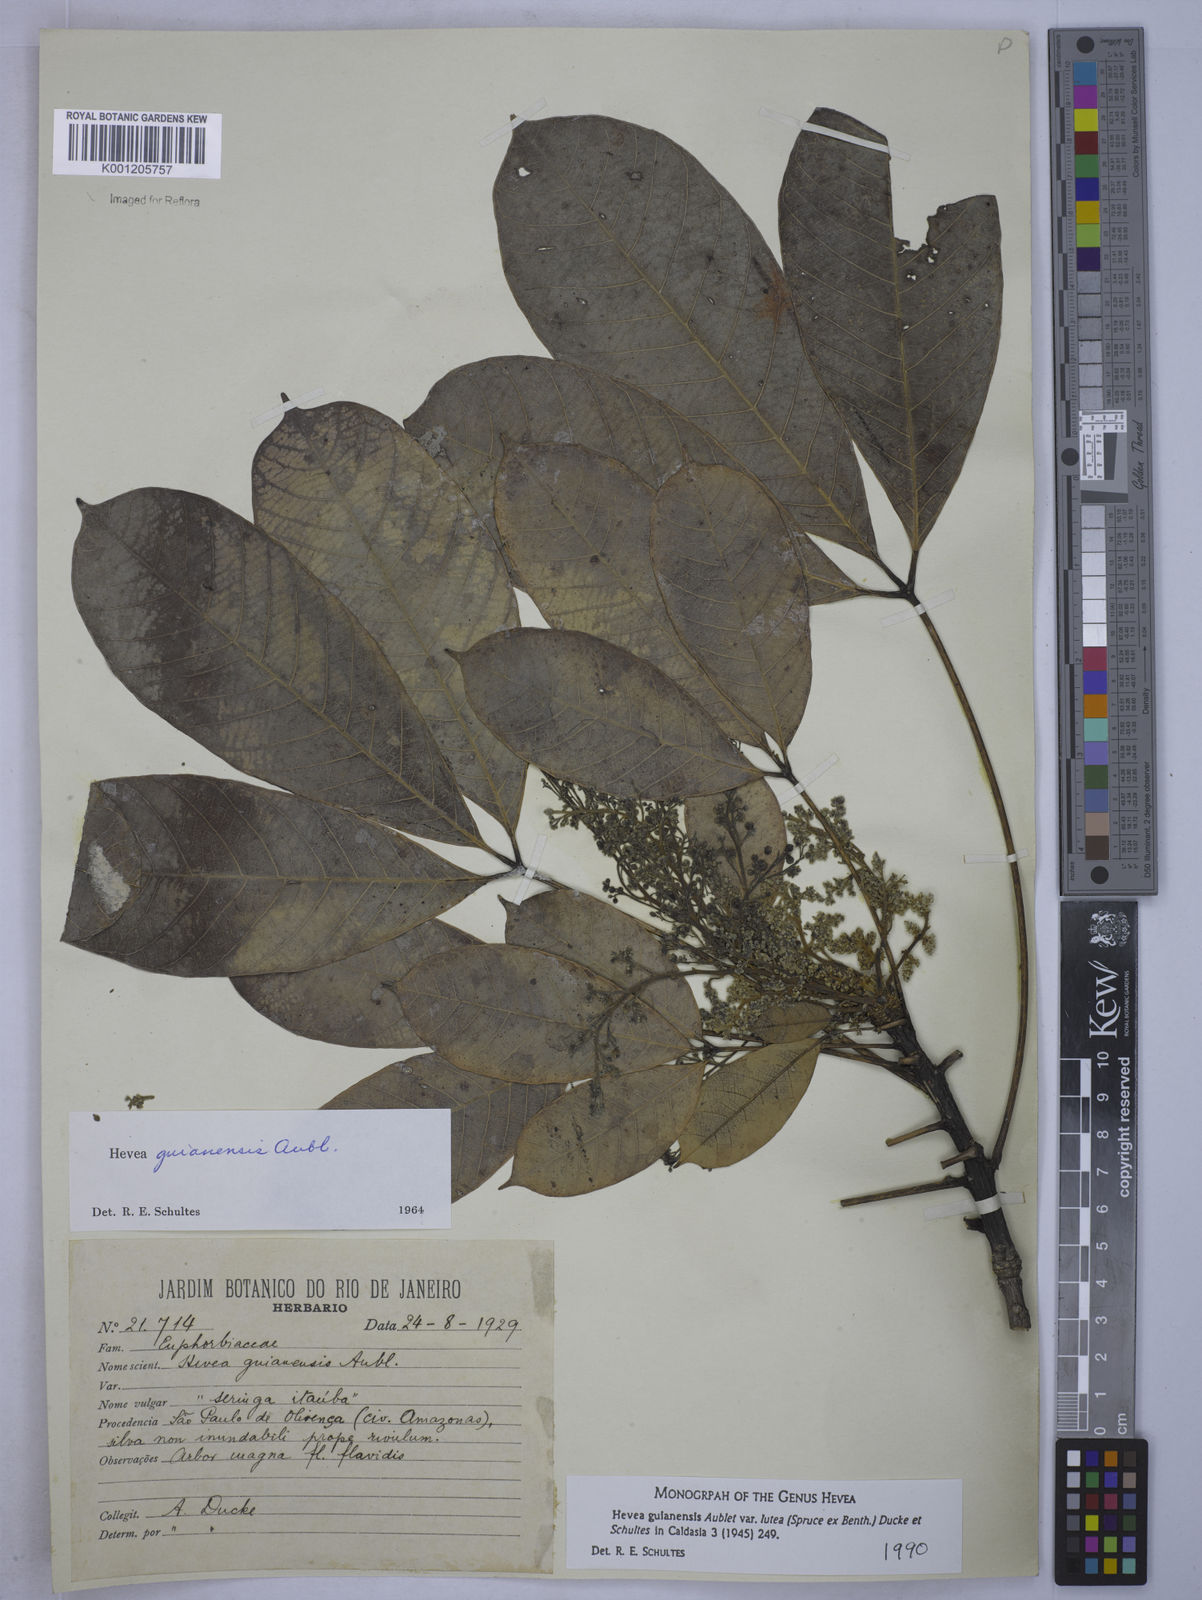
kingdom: Plantae
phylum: Tracheophyta
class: Magnoliopsida
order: Malpighiales
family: Euphorbiaceae
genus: Hevea
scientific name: Hevea guianensis
